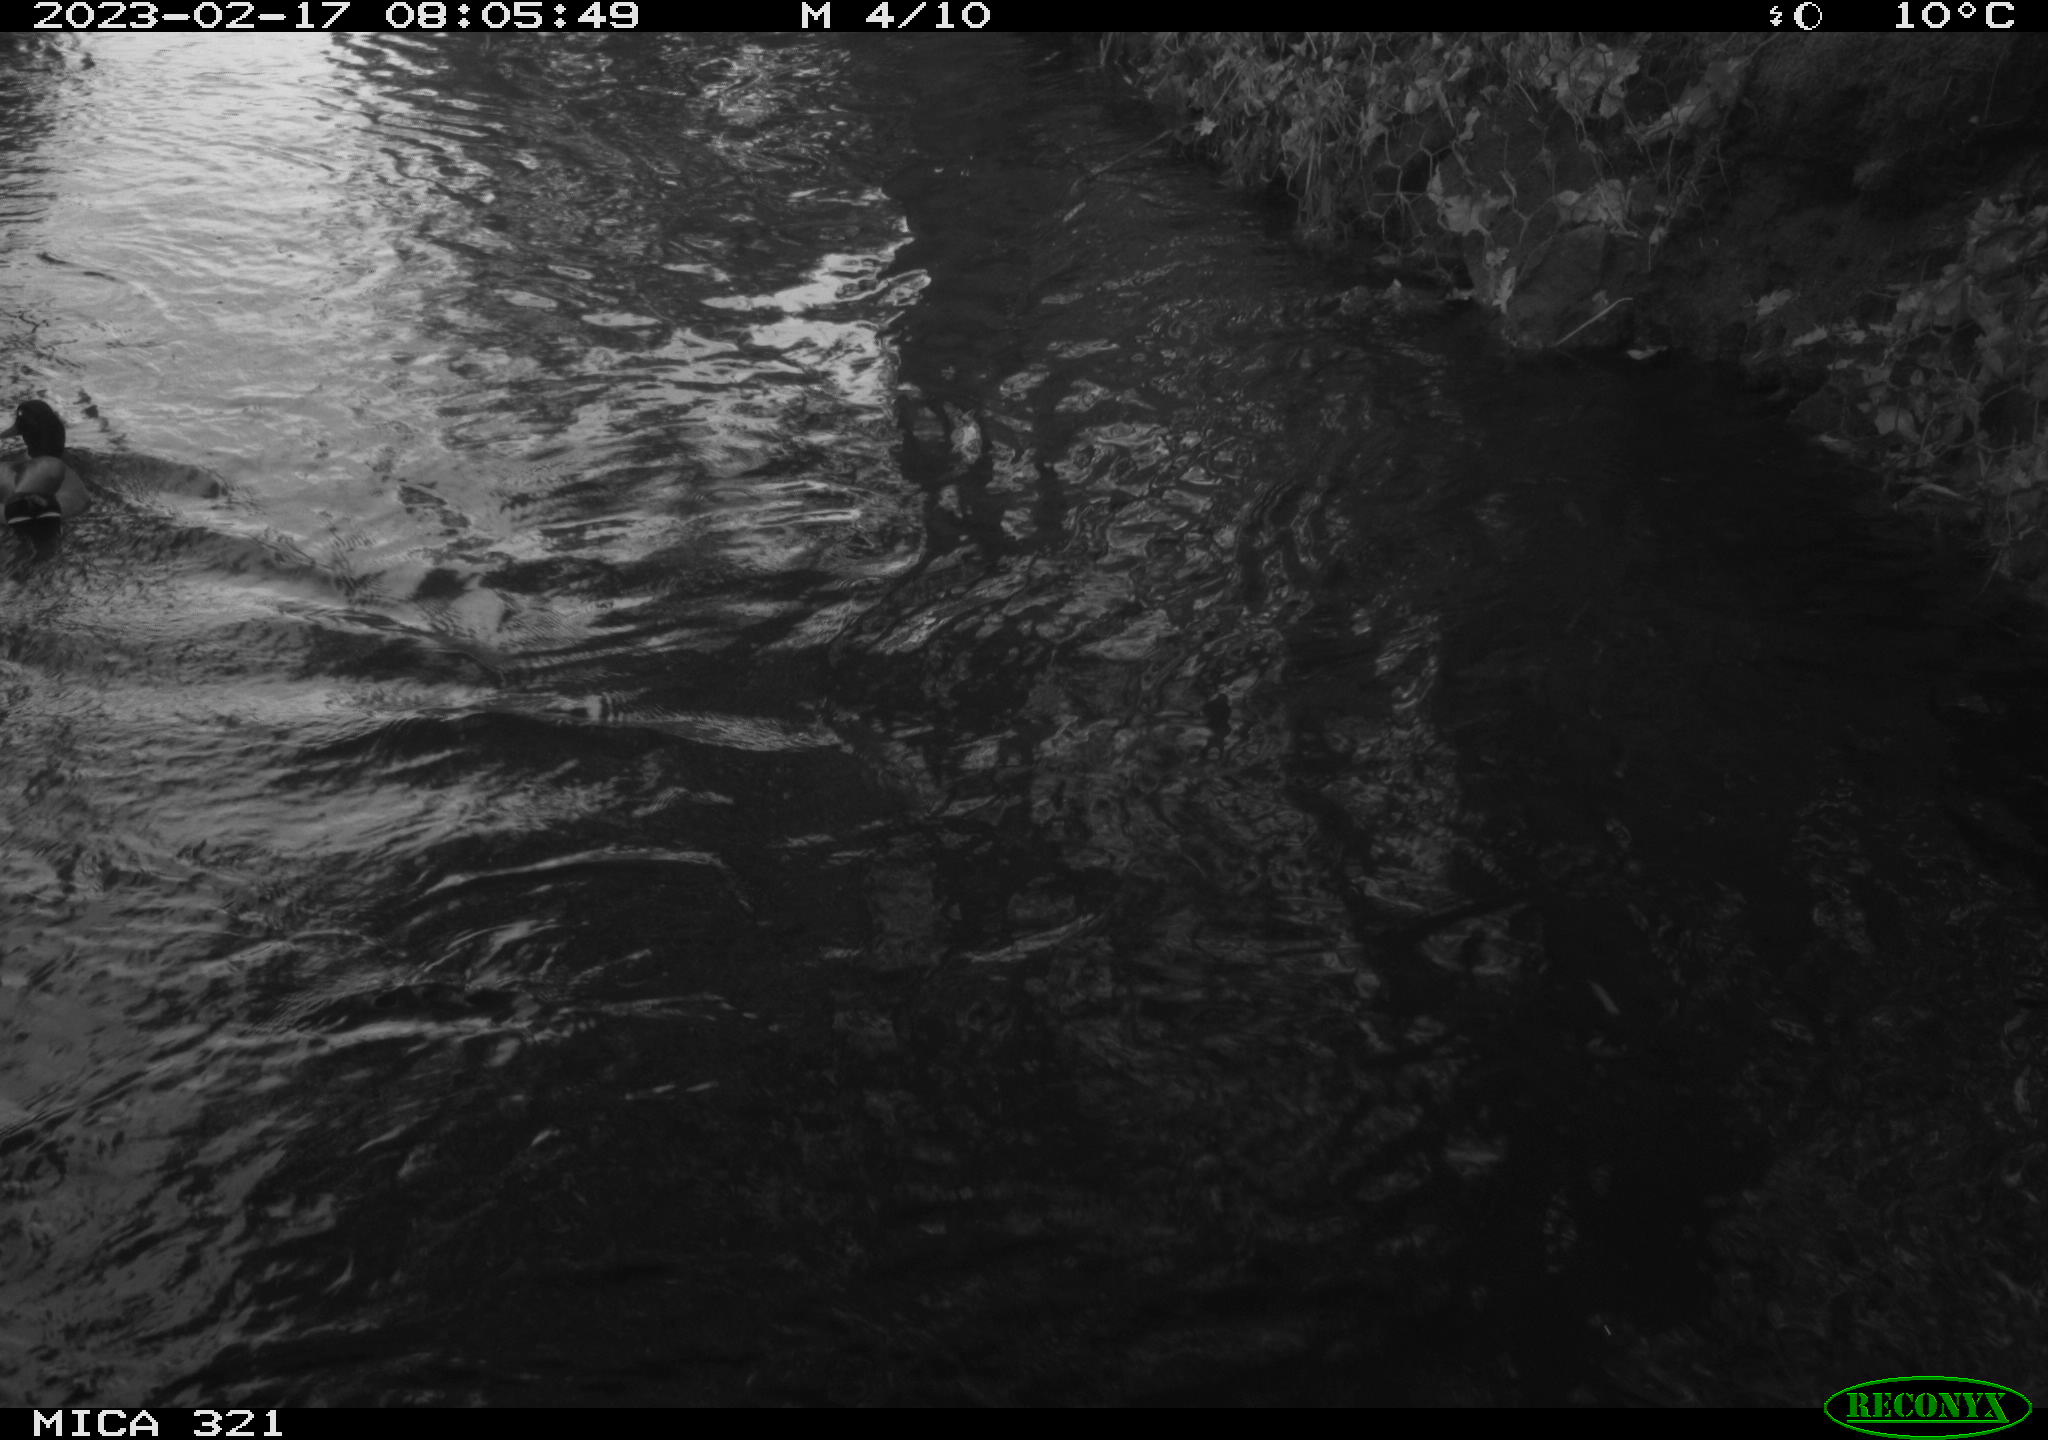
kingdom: Animalia
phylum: Chordata
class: Aves
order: Anseriformes
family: Anatidae
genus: Anas
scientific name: Anas
